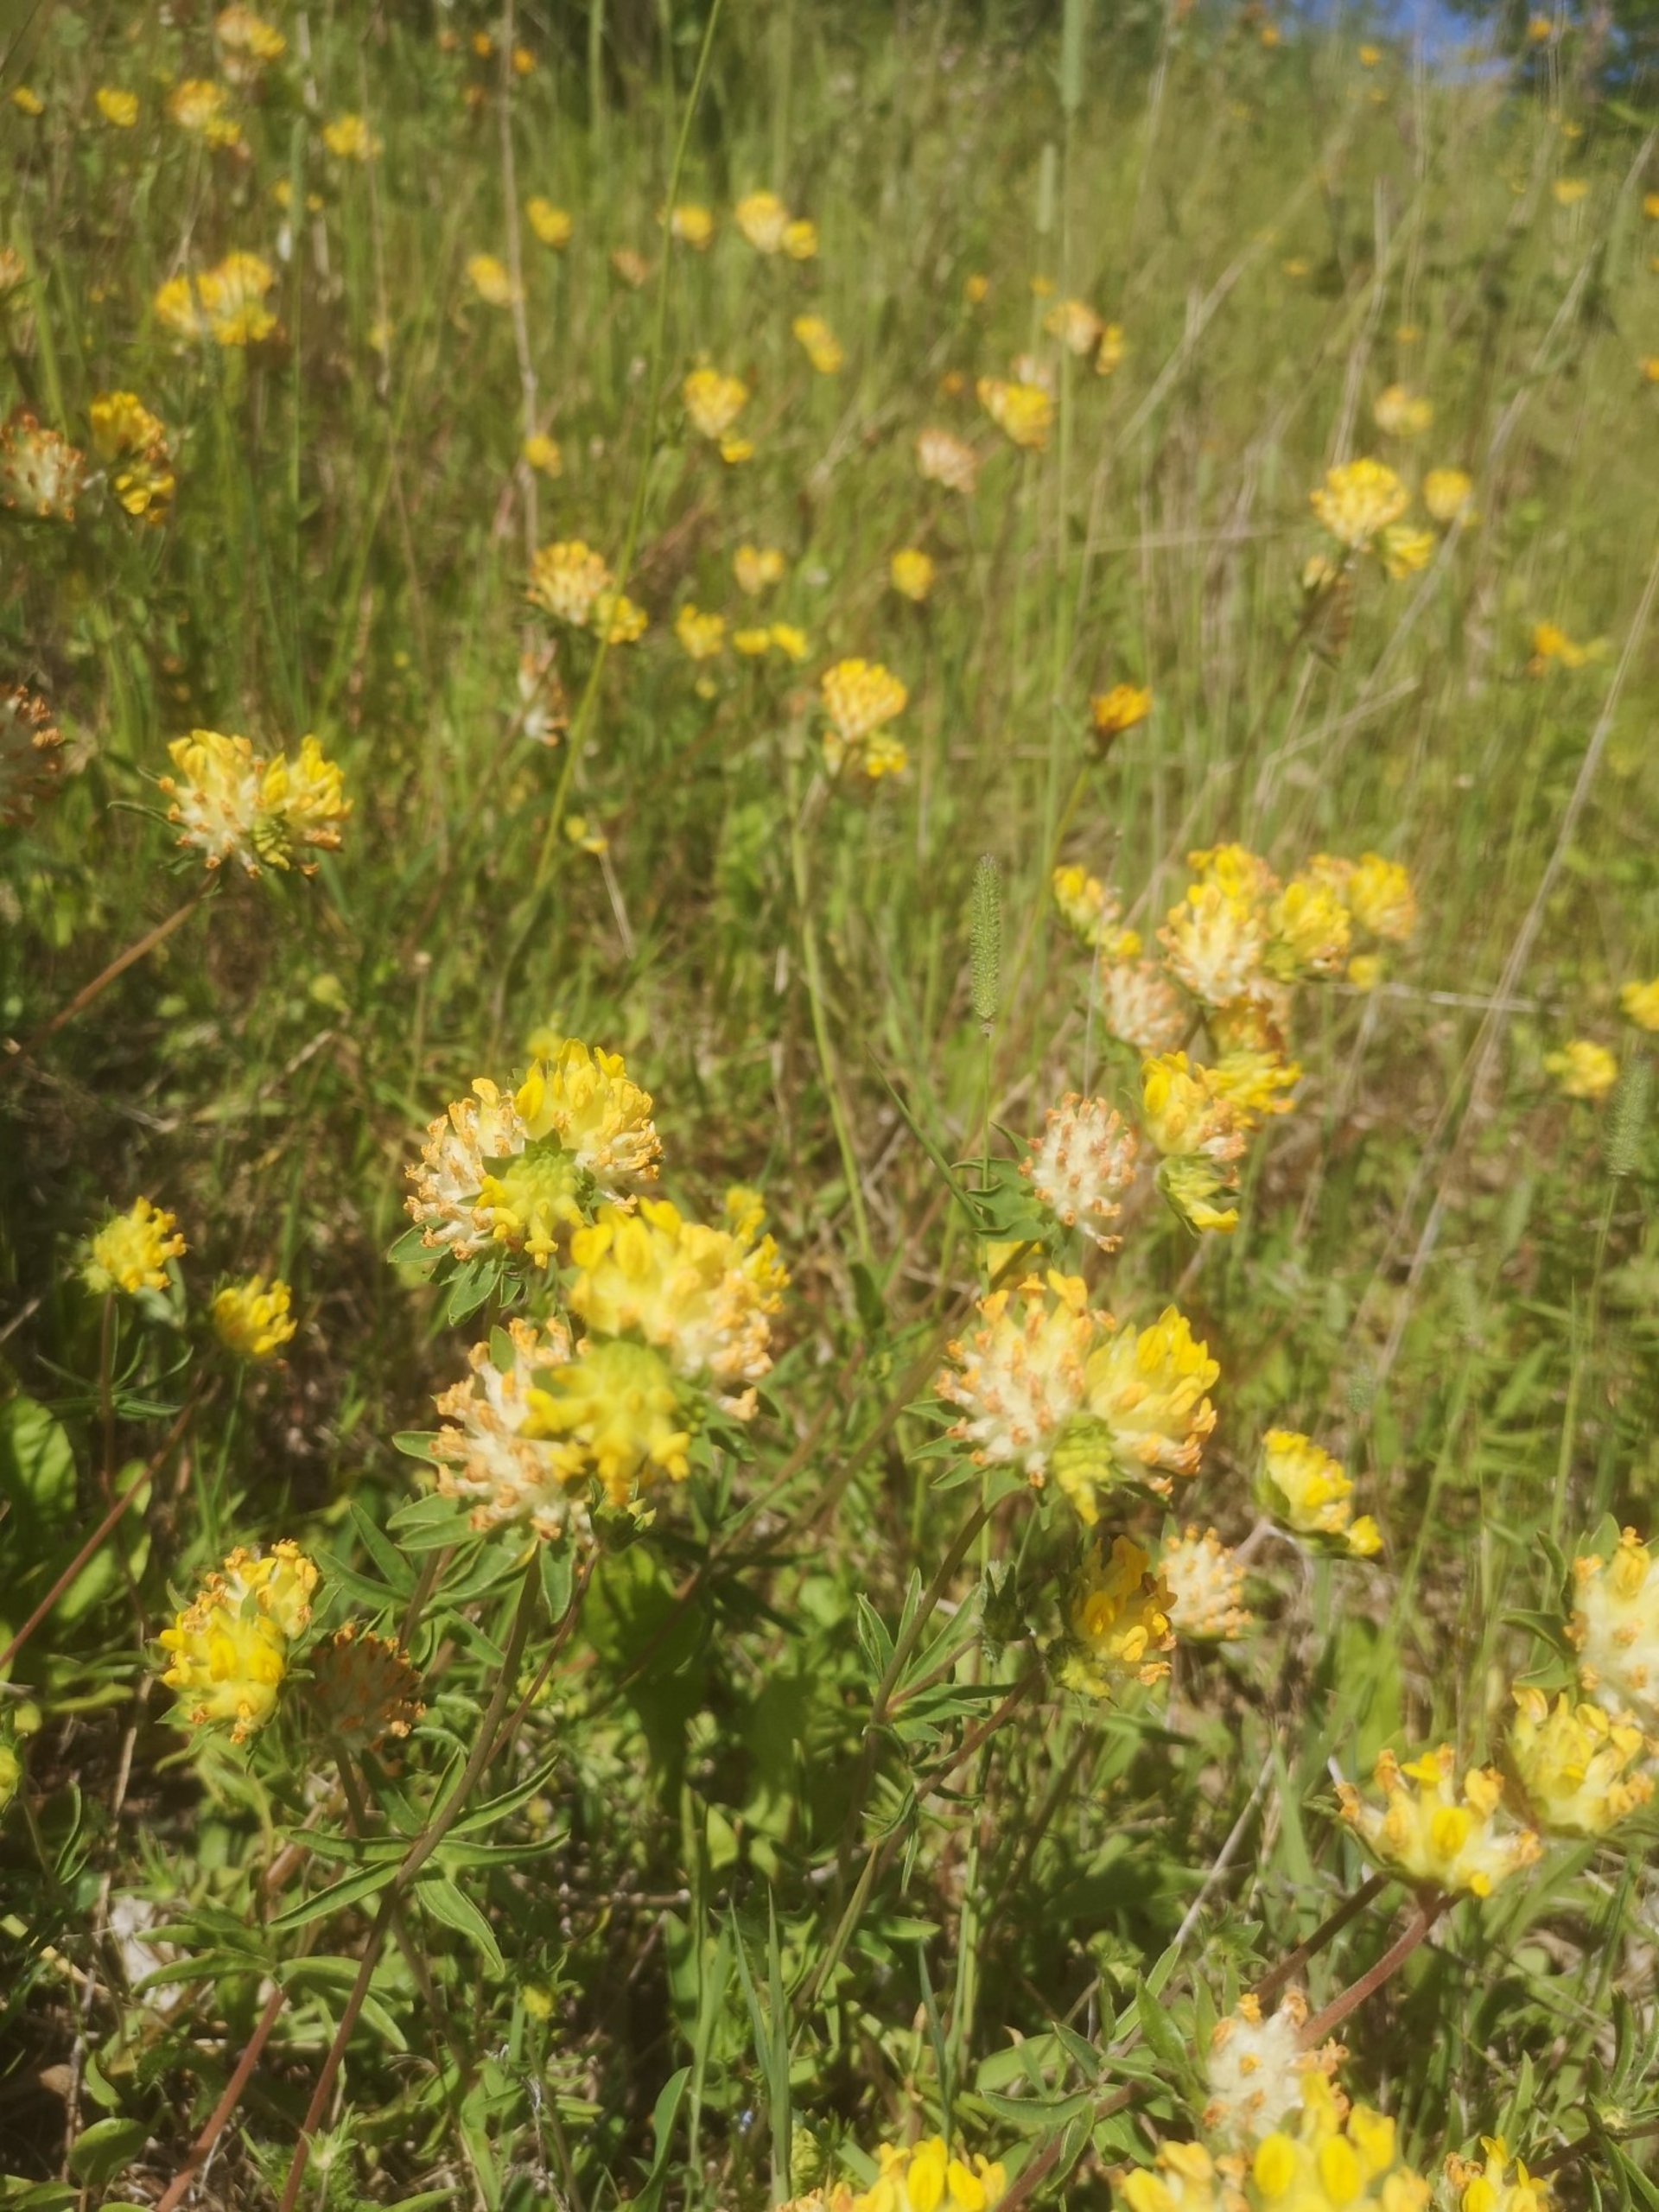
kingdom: Plantae
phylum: Tracheophyta
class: Magnoliopsida
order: Fabales
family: Fabaceae
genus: Anthyllis
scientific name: Anthyllis vulneraria
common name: Rundbælg
